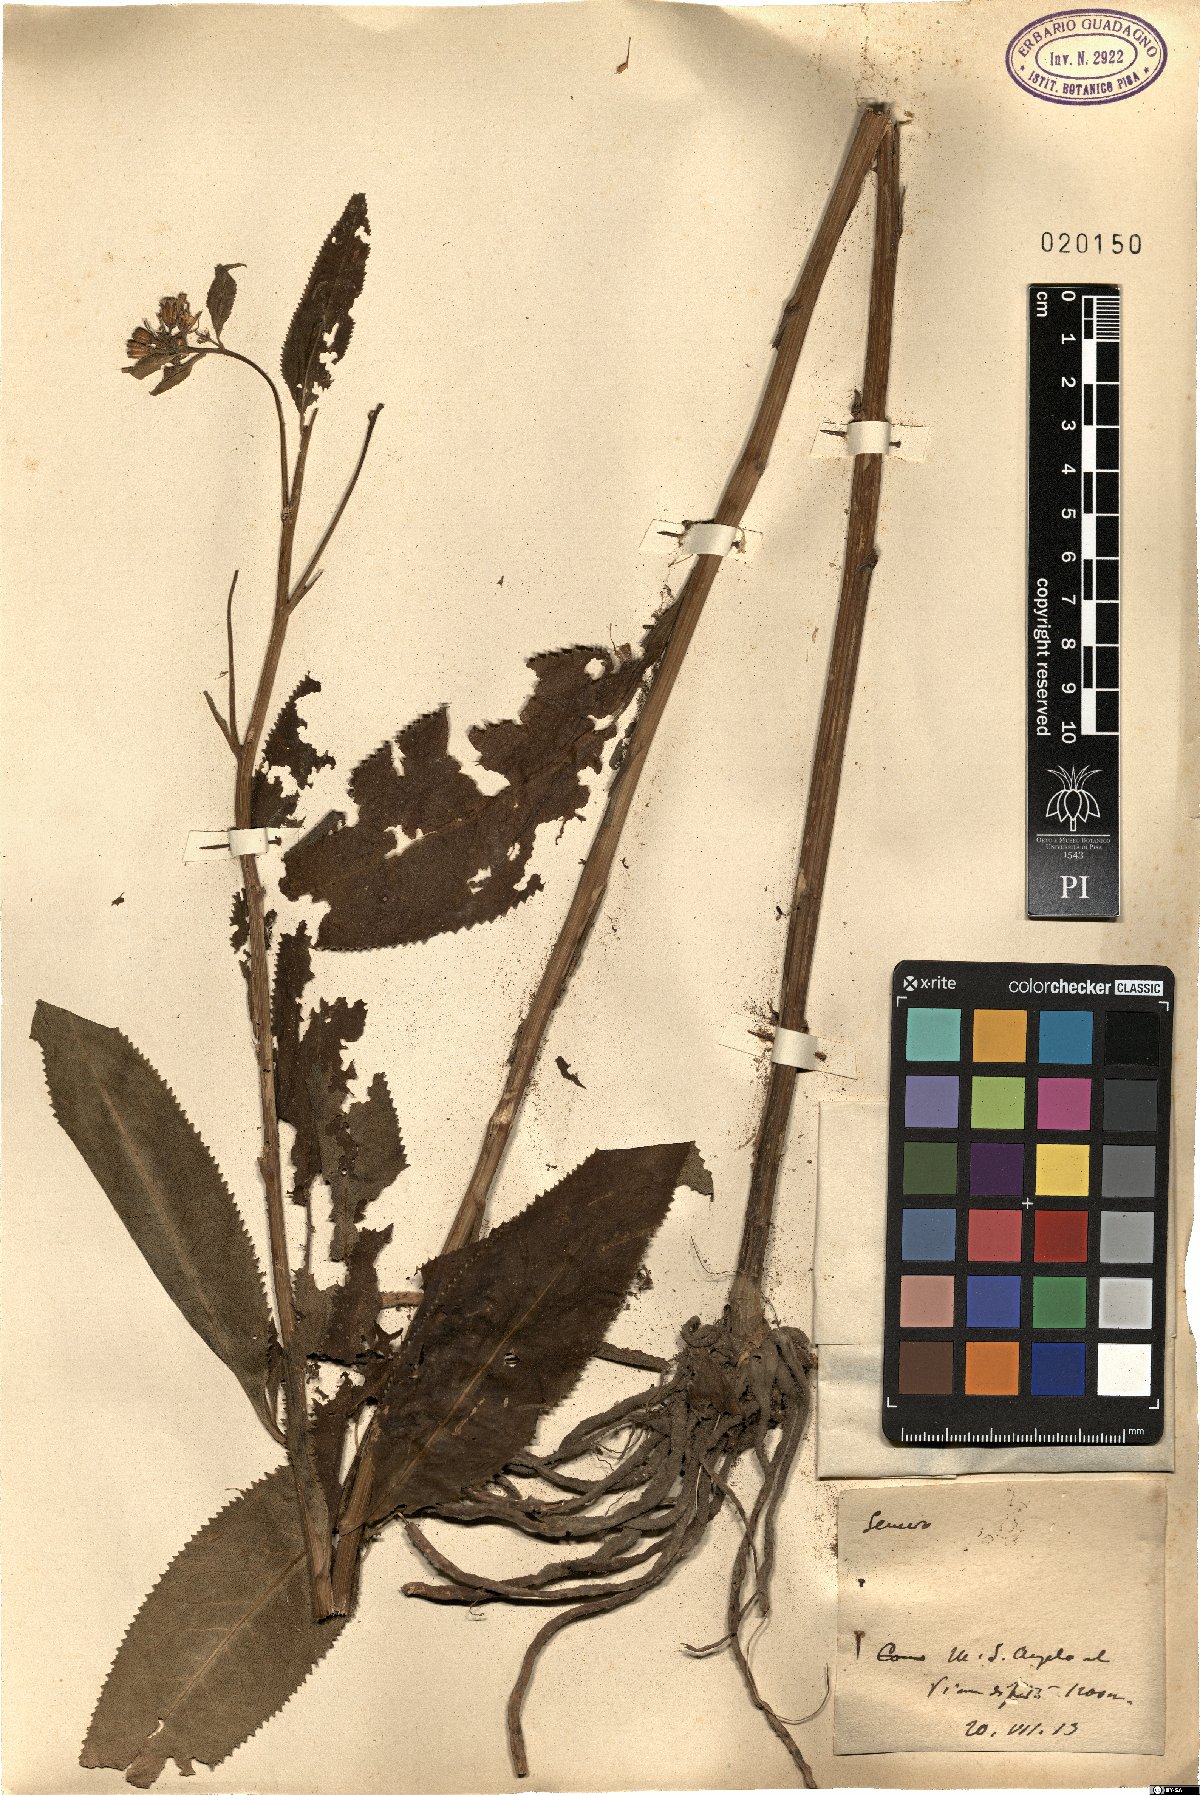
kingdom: Plantae
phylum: Tracheophyta
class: Magnoliopsida
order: Asterales
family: Asteraceae
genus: Senecio
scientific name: Senecio
